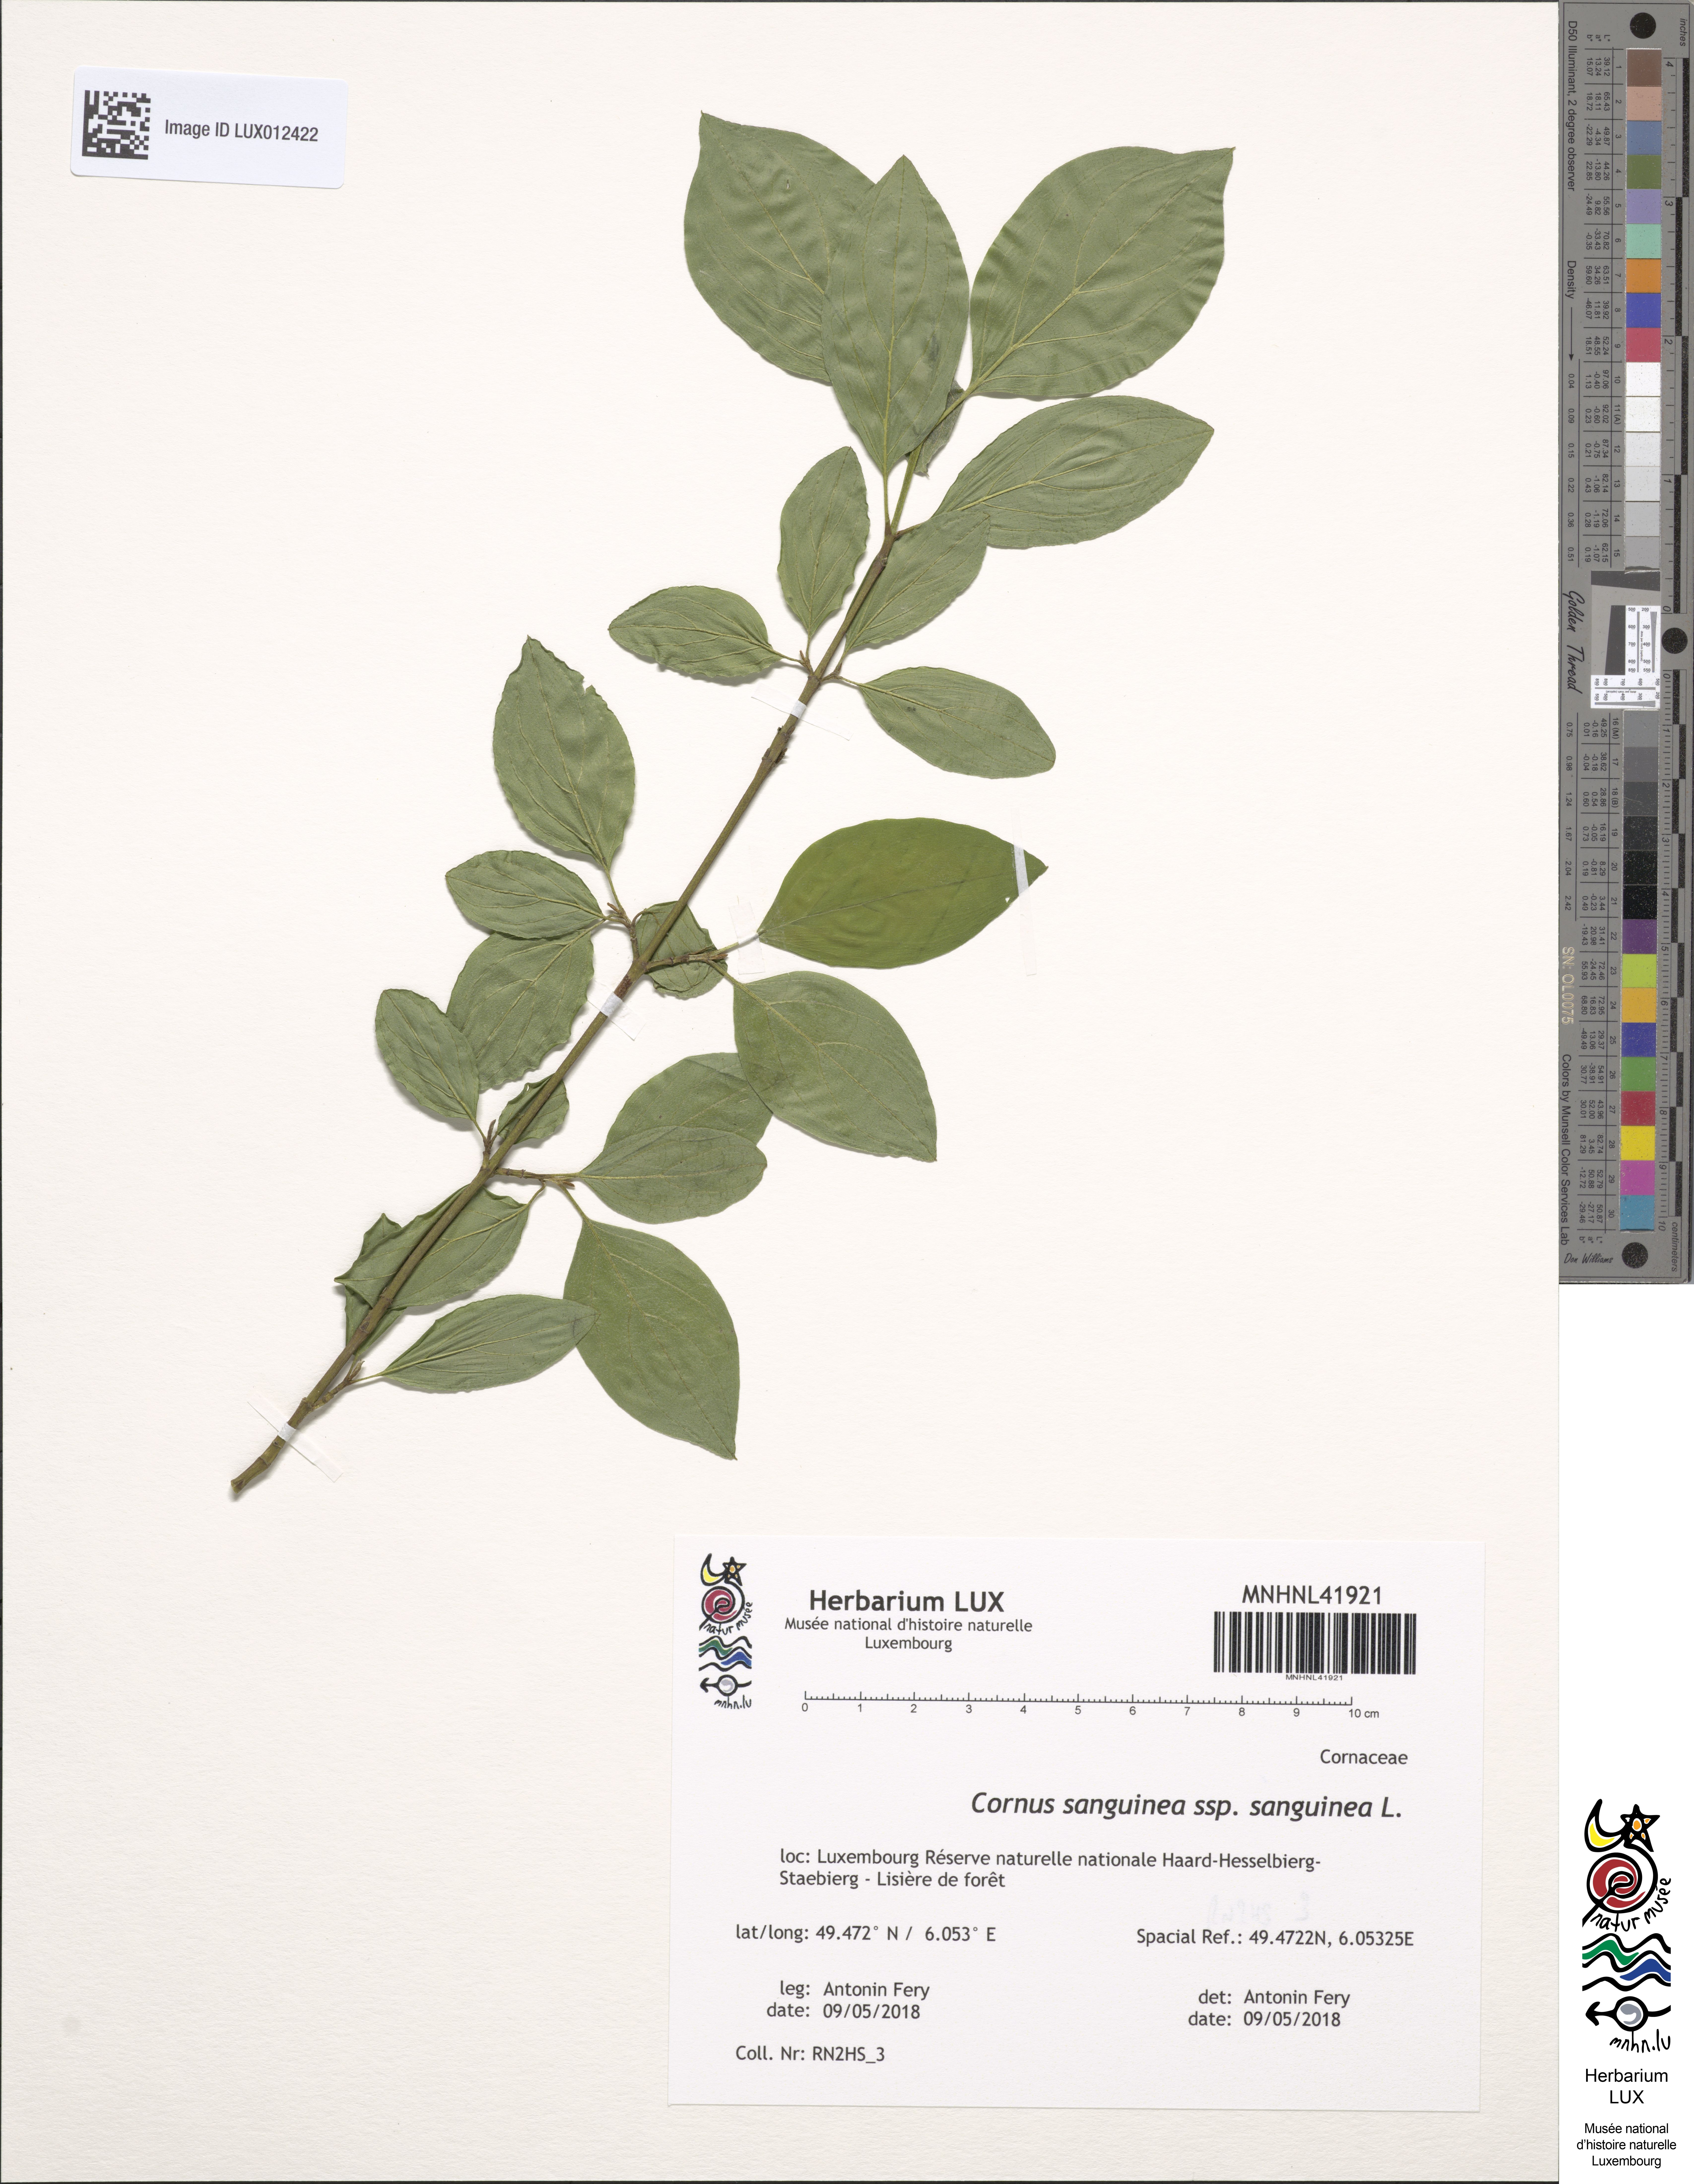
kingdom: Plantae
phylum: Tracheophyta
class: Magnoliopsida
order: Cornales
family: Cornaceae
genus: Cornus
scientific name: Cornus sanguinea
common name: Dogwood
